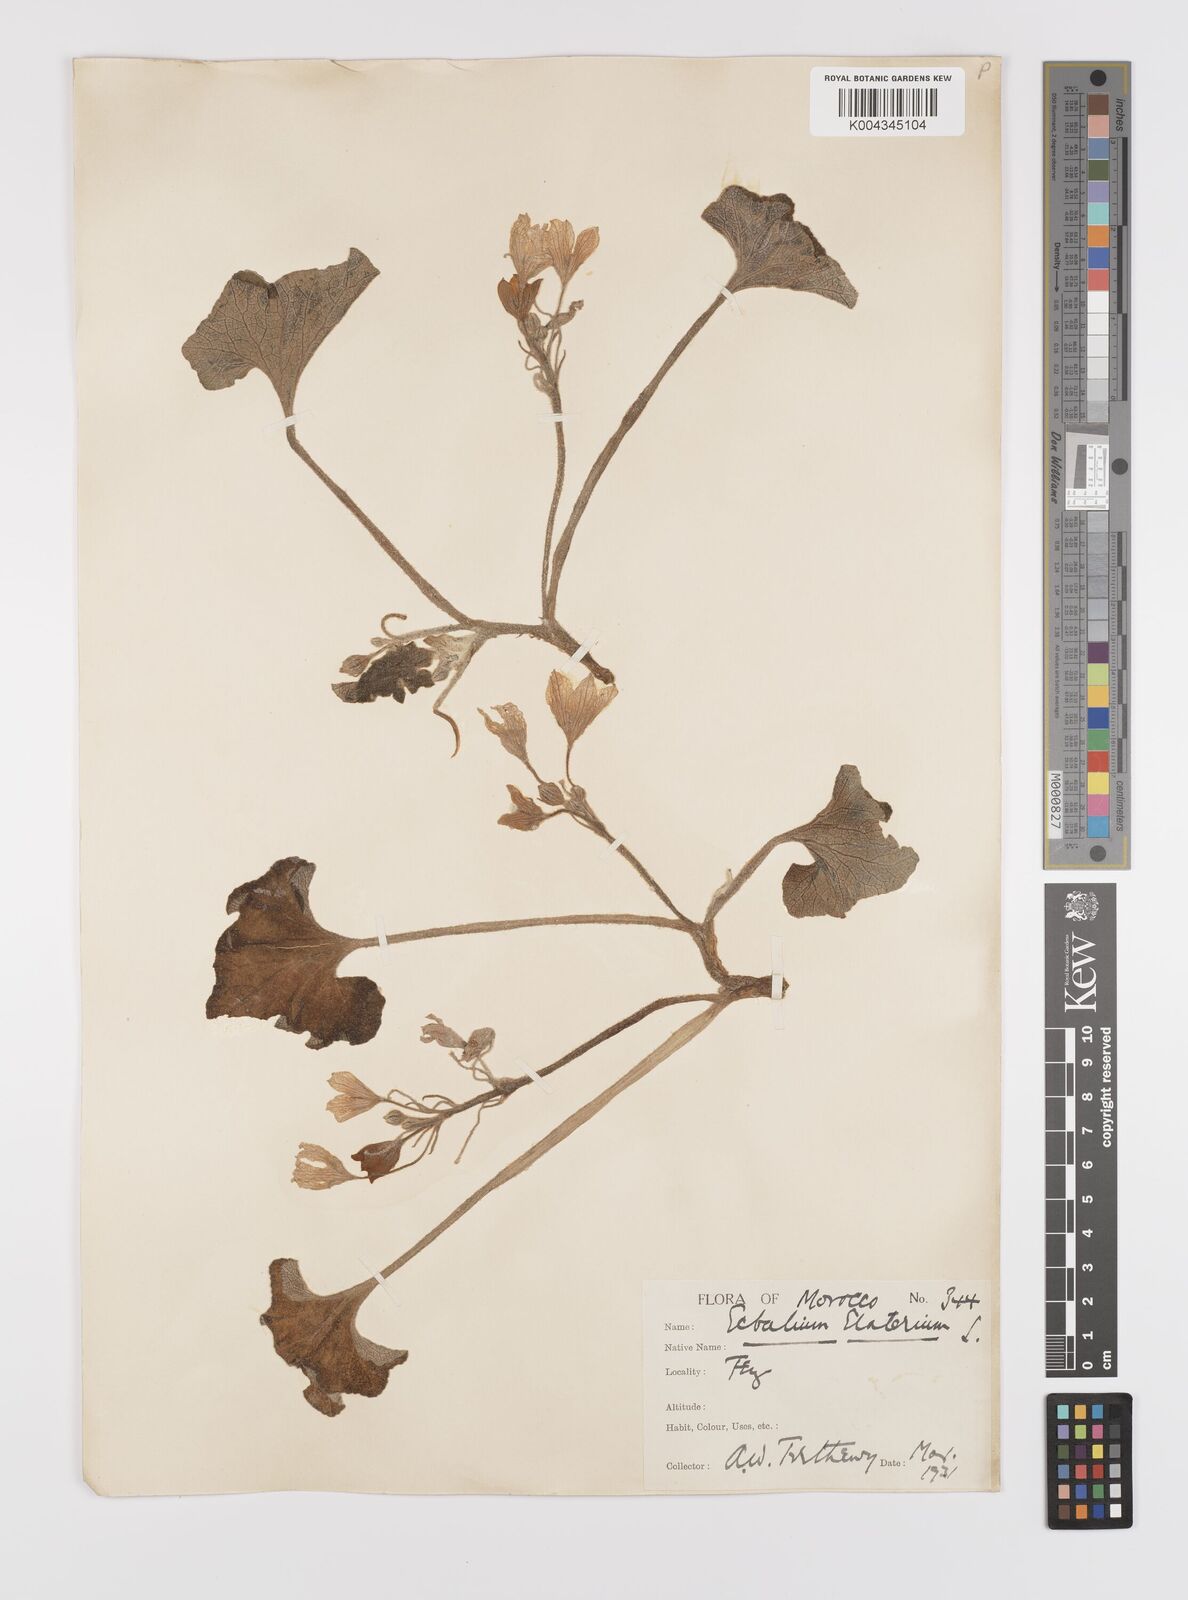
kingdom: Plantae
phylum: Tracheophyta
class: Magnoliopsida
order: Cucurbitales
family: Cucurbitaceae
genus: Ecballium
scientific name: Ecballium elaterium
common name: Squirting cucumber
